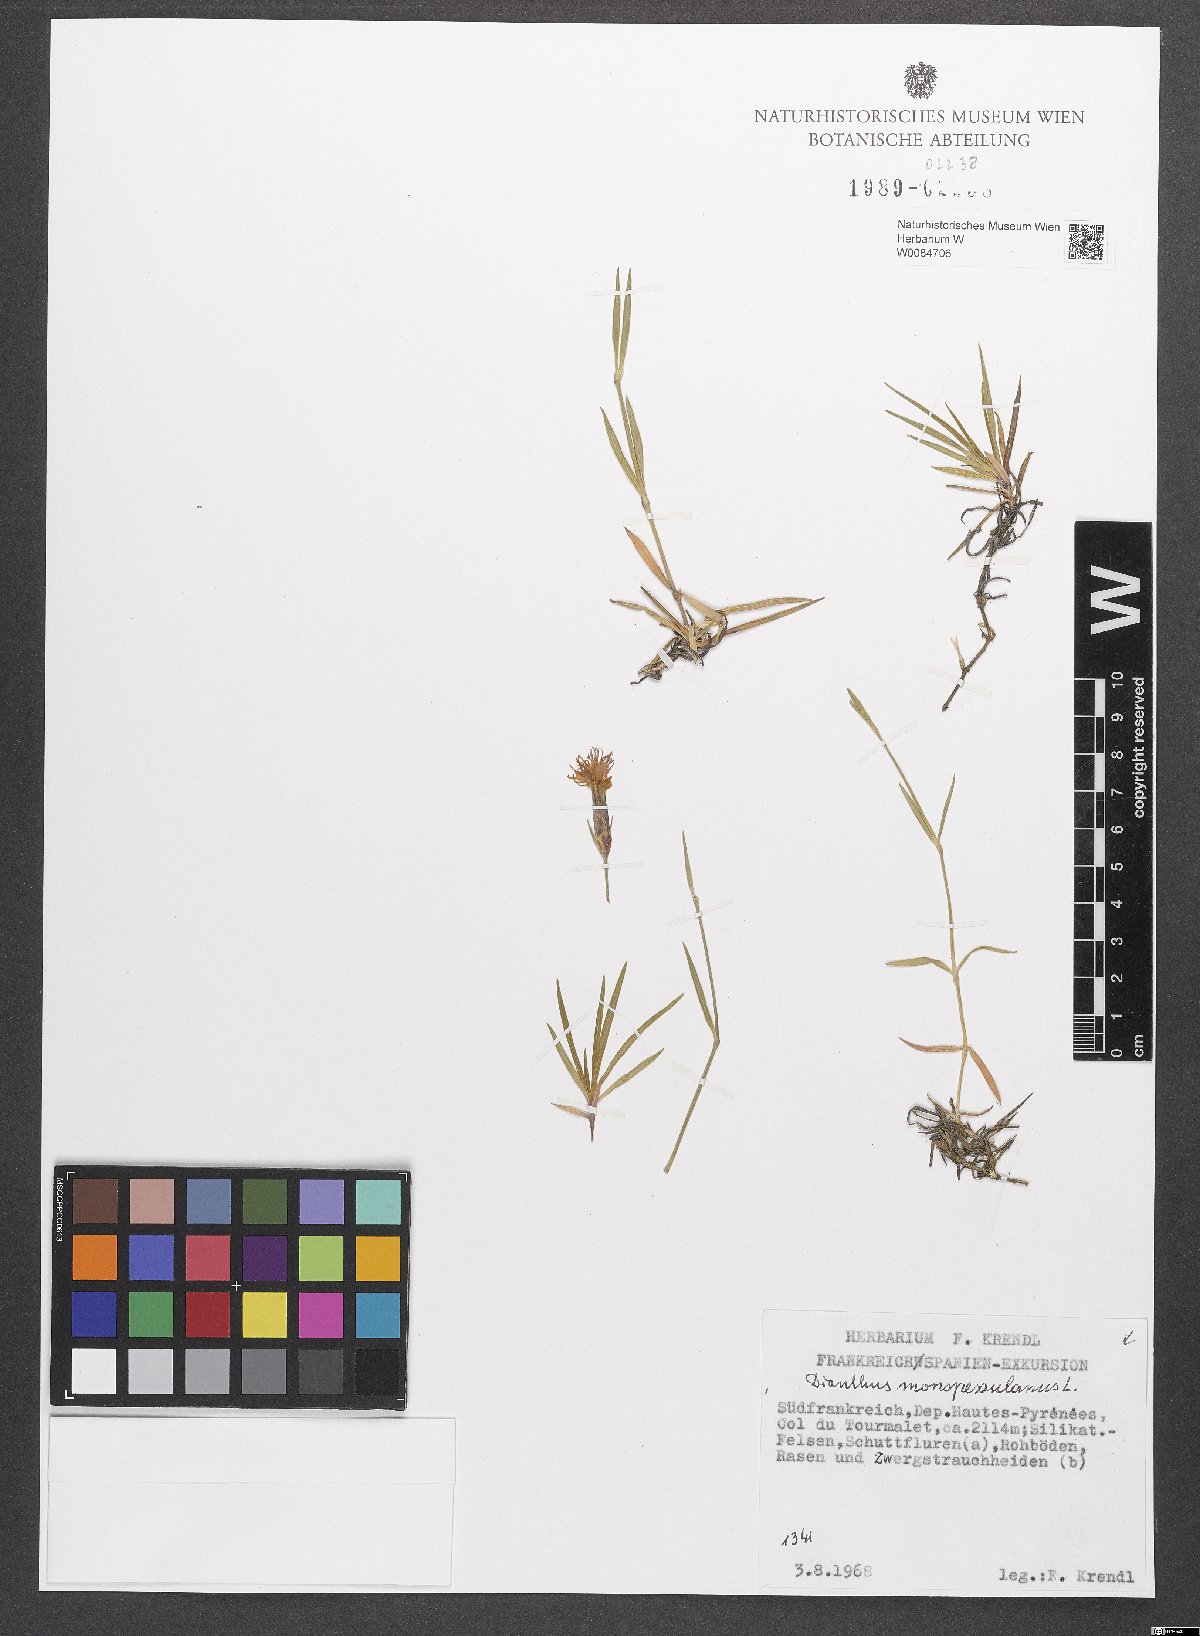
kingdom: Plantae
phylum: Tracheophyta
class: Magnoliopsida
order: Caryophyllales
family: Caryophyllaceae
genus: Dianthus
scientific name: Dianthus hyssopifolius
